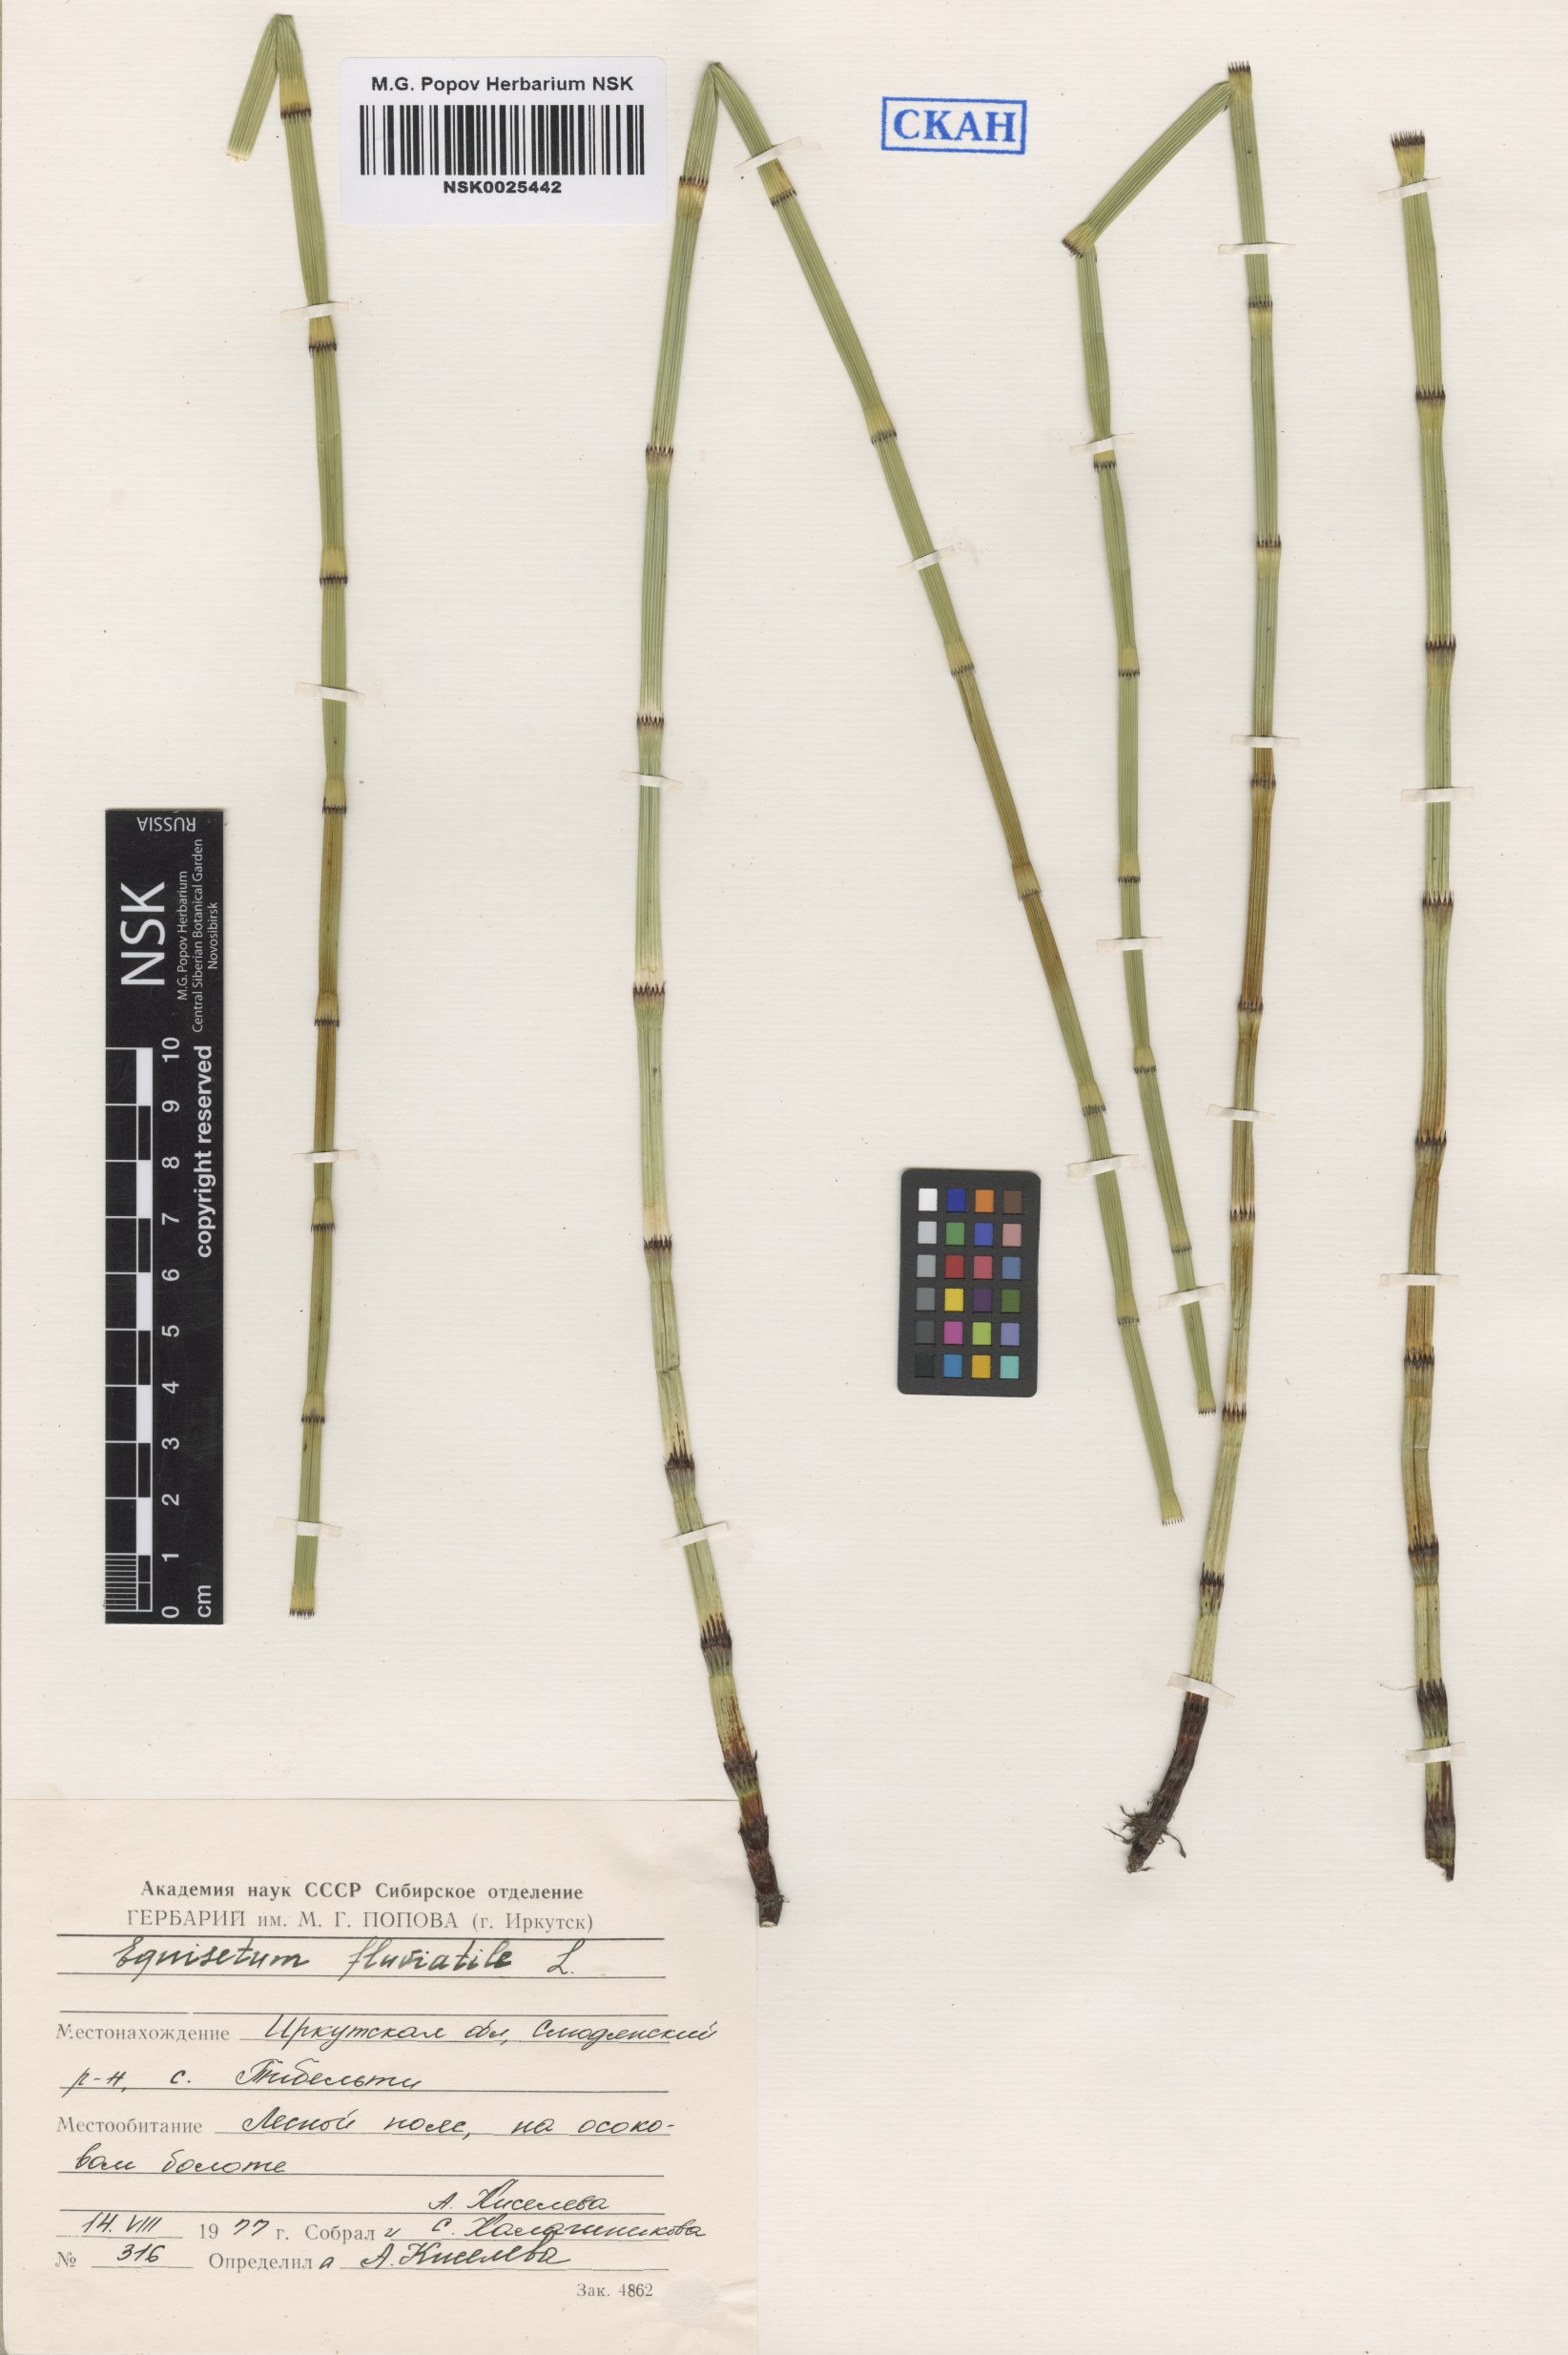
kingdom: Plantae
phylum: Tracheophyta
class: Polypodiopsida
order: Equisetales
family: Equisetaceae
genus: Equisetum
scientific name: Equisetum fluviatile
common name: Water horsetail
